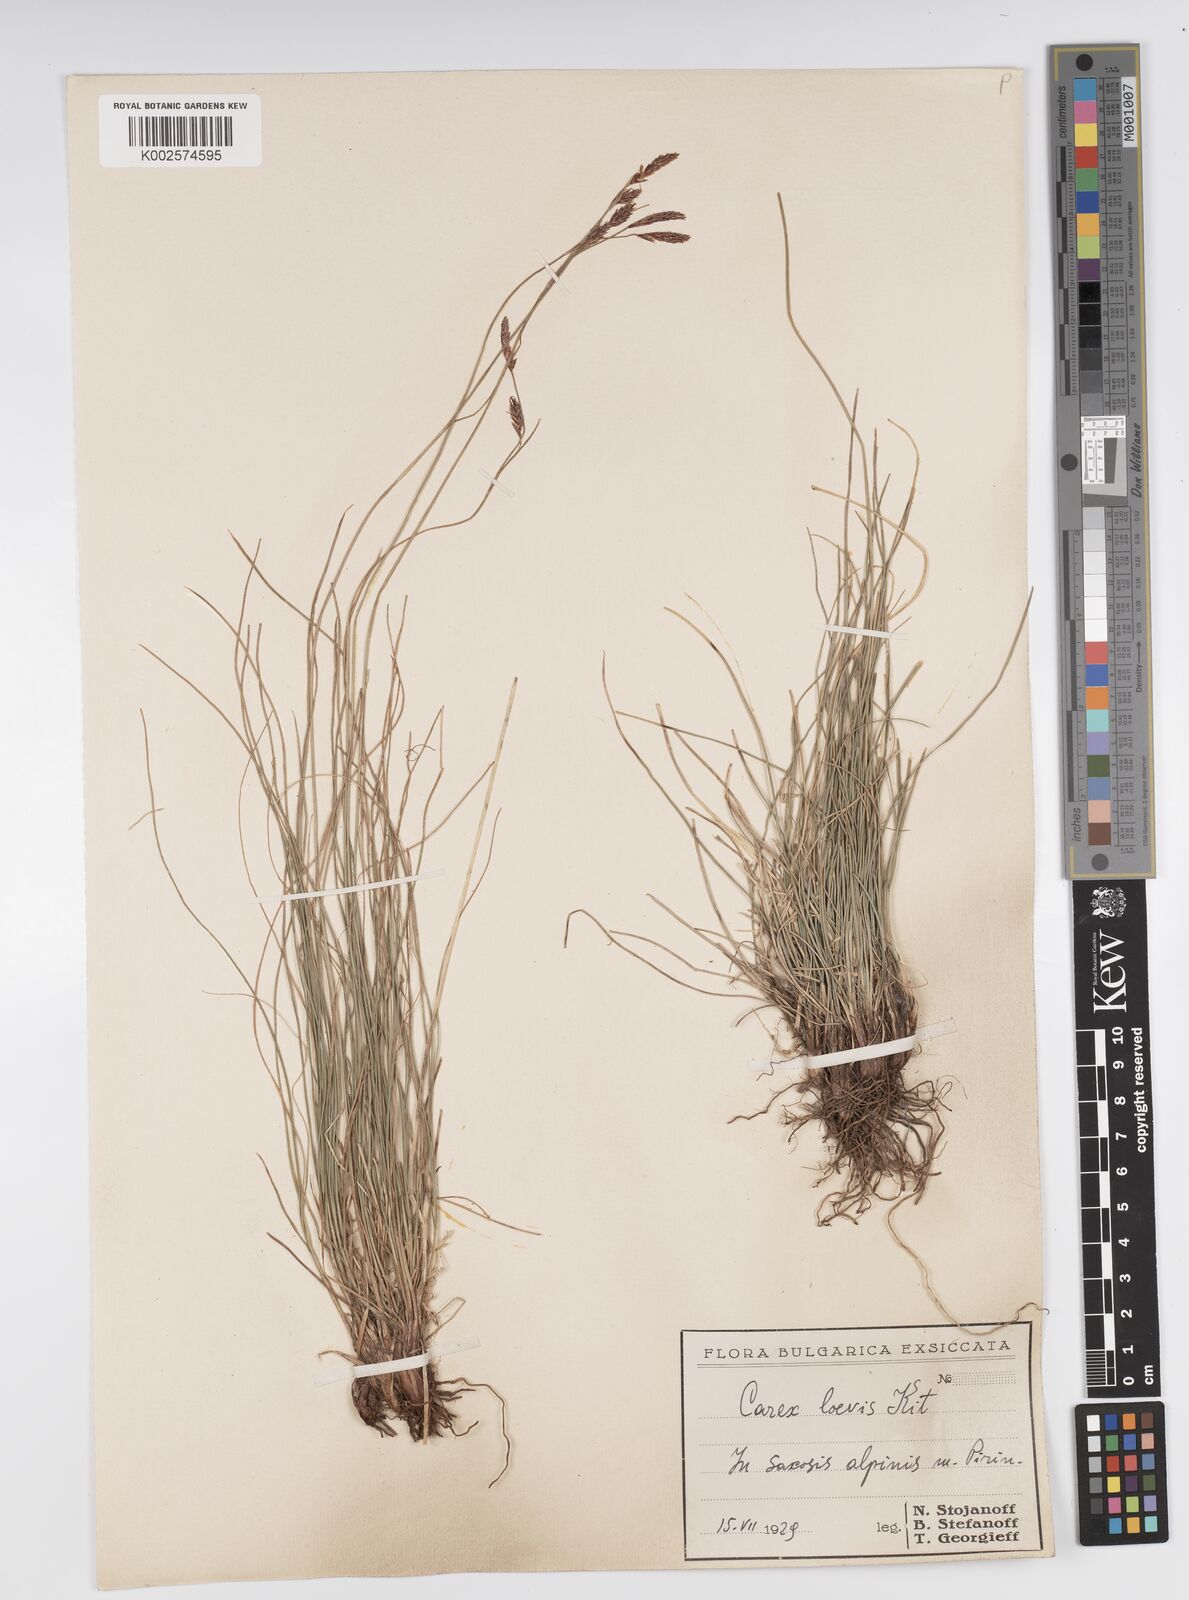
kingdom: Plantae
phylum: Tracheophyta
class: Liliopsida
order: Poales
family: Cyperaceae
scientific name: Cyperaceae
